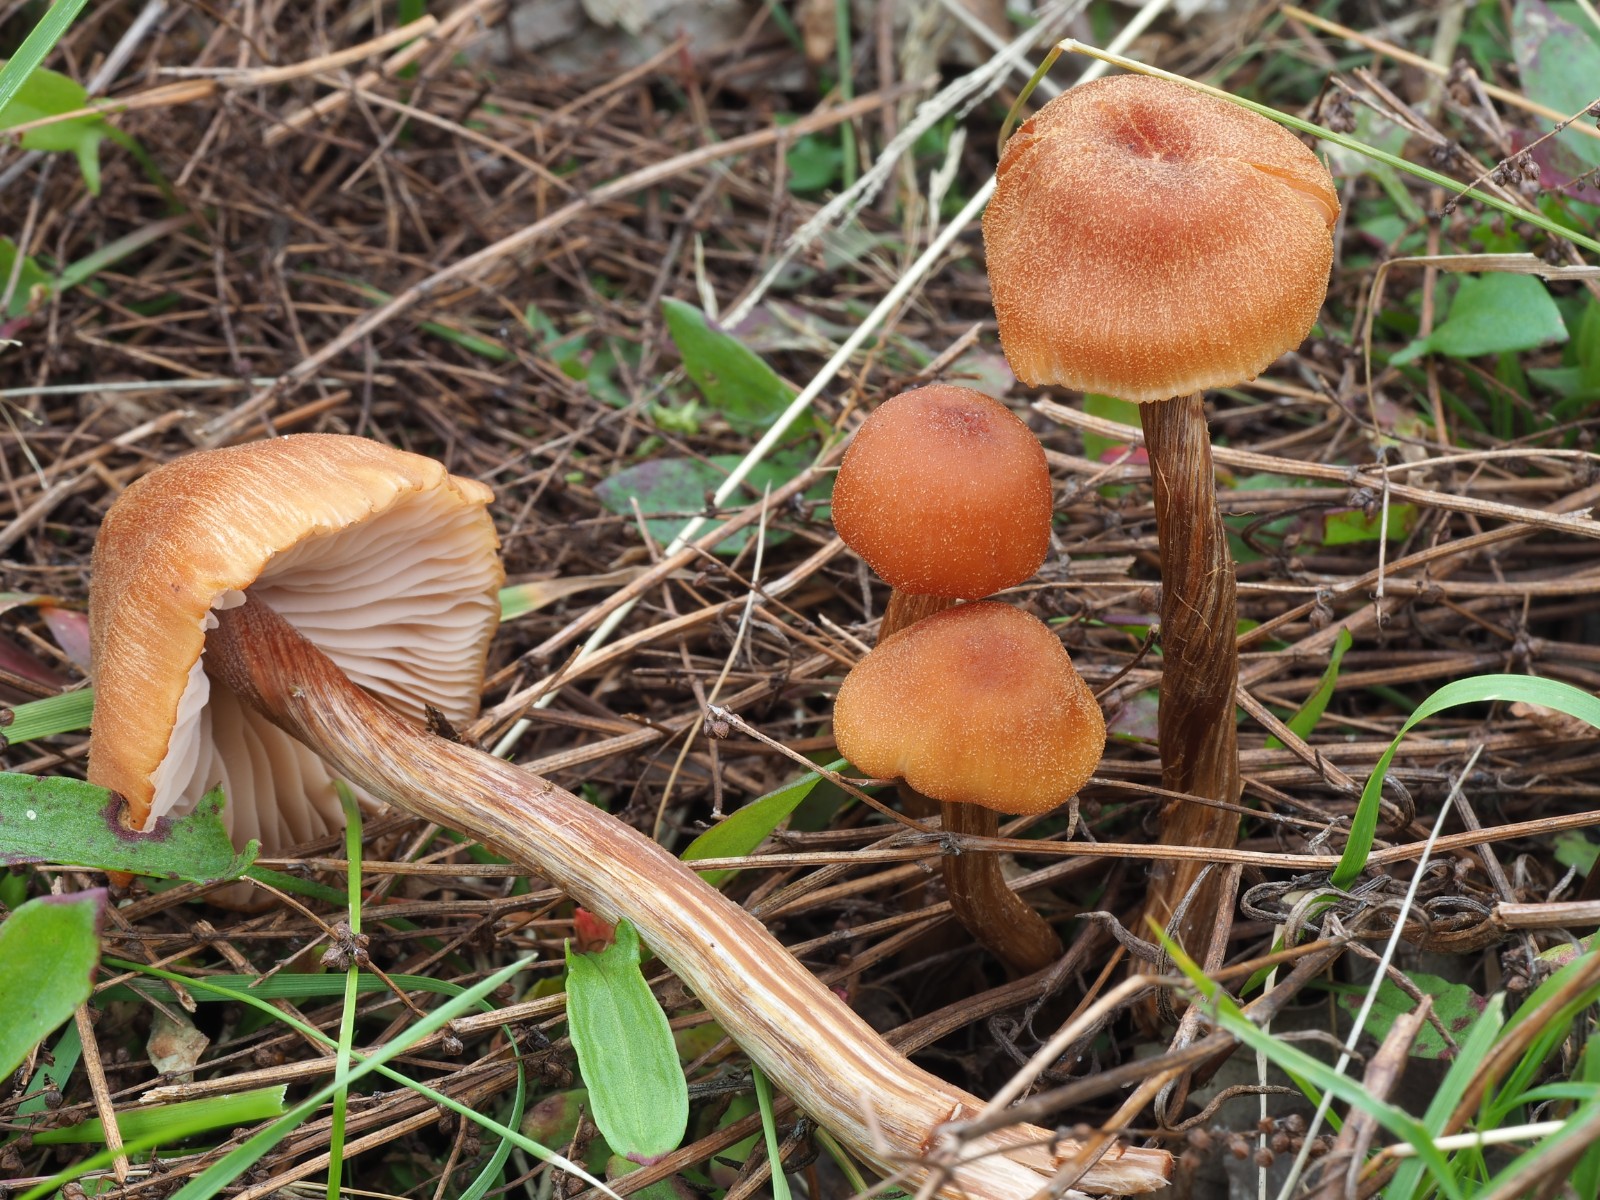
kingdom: Fungi
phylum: Basidiomycota
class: Agaricomycetes
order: Agaricales
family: Hydnangiaceae
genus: Laccaria
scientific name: Laccaria proxima
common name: stor ametysthat
